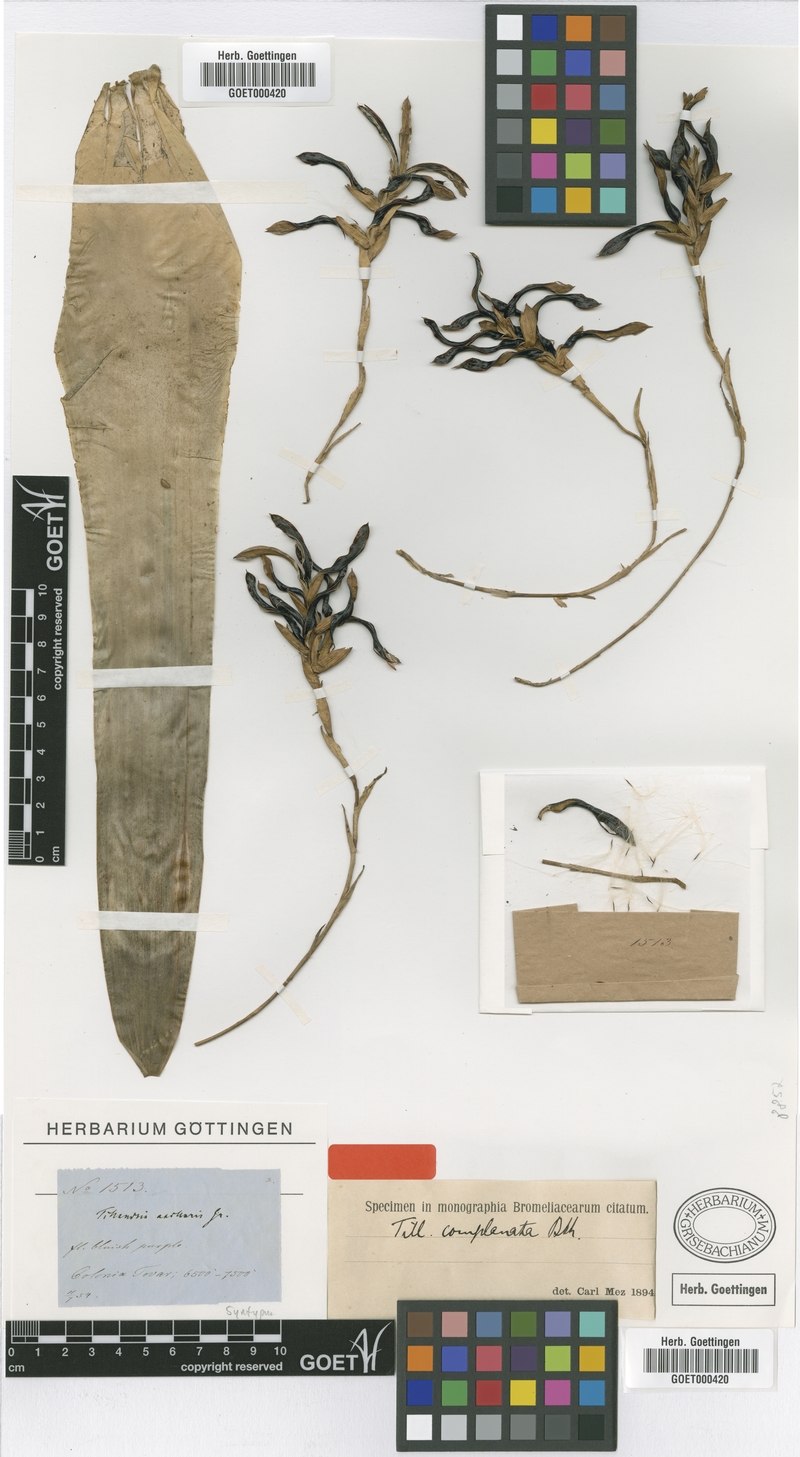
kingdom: Plantae
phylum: Tracheophyta
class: Liliopsida
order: Poales
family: Bromeliaceae
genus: Tillandsia
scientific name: Tillandsia complanata
